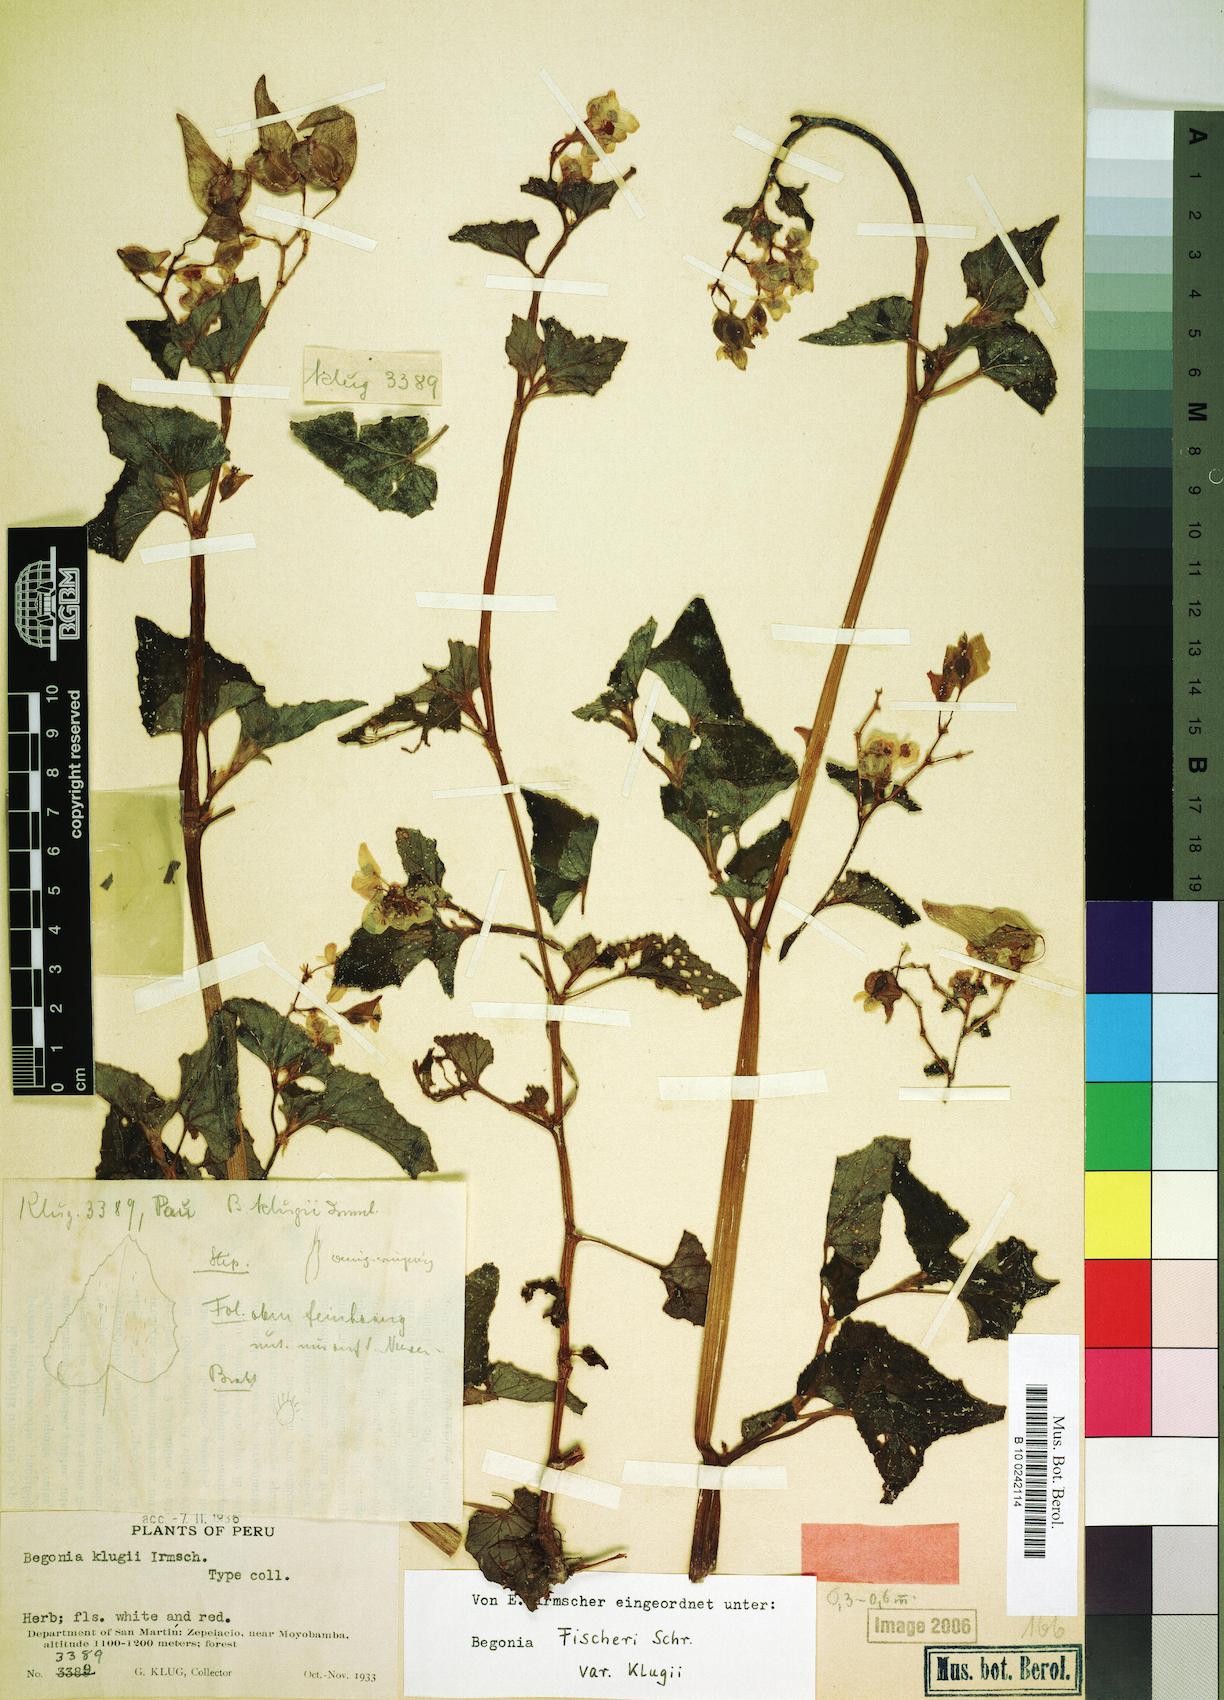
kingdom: Plantae
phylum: Tracheophyta
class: Magnoliopsida
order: Cucurbitales
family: Begoniaceae
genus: Begonia
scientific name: Begonia fischeri
